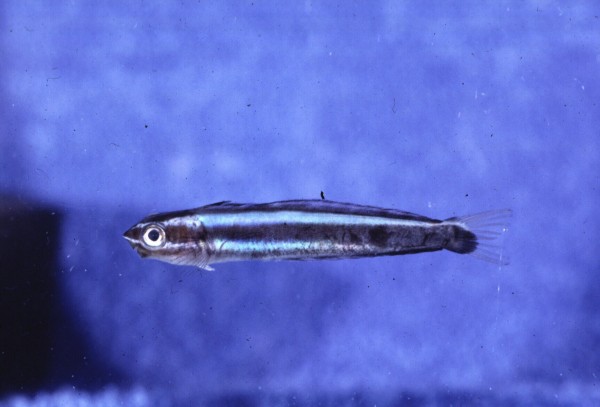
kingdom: Animalia
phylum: Chordata
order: Perciformes
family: Blenniidae
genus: Plagiotremus
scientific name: Plagiotremus rhinorhynchos
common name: Bluestriped fangblenny
